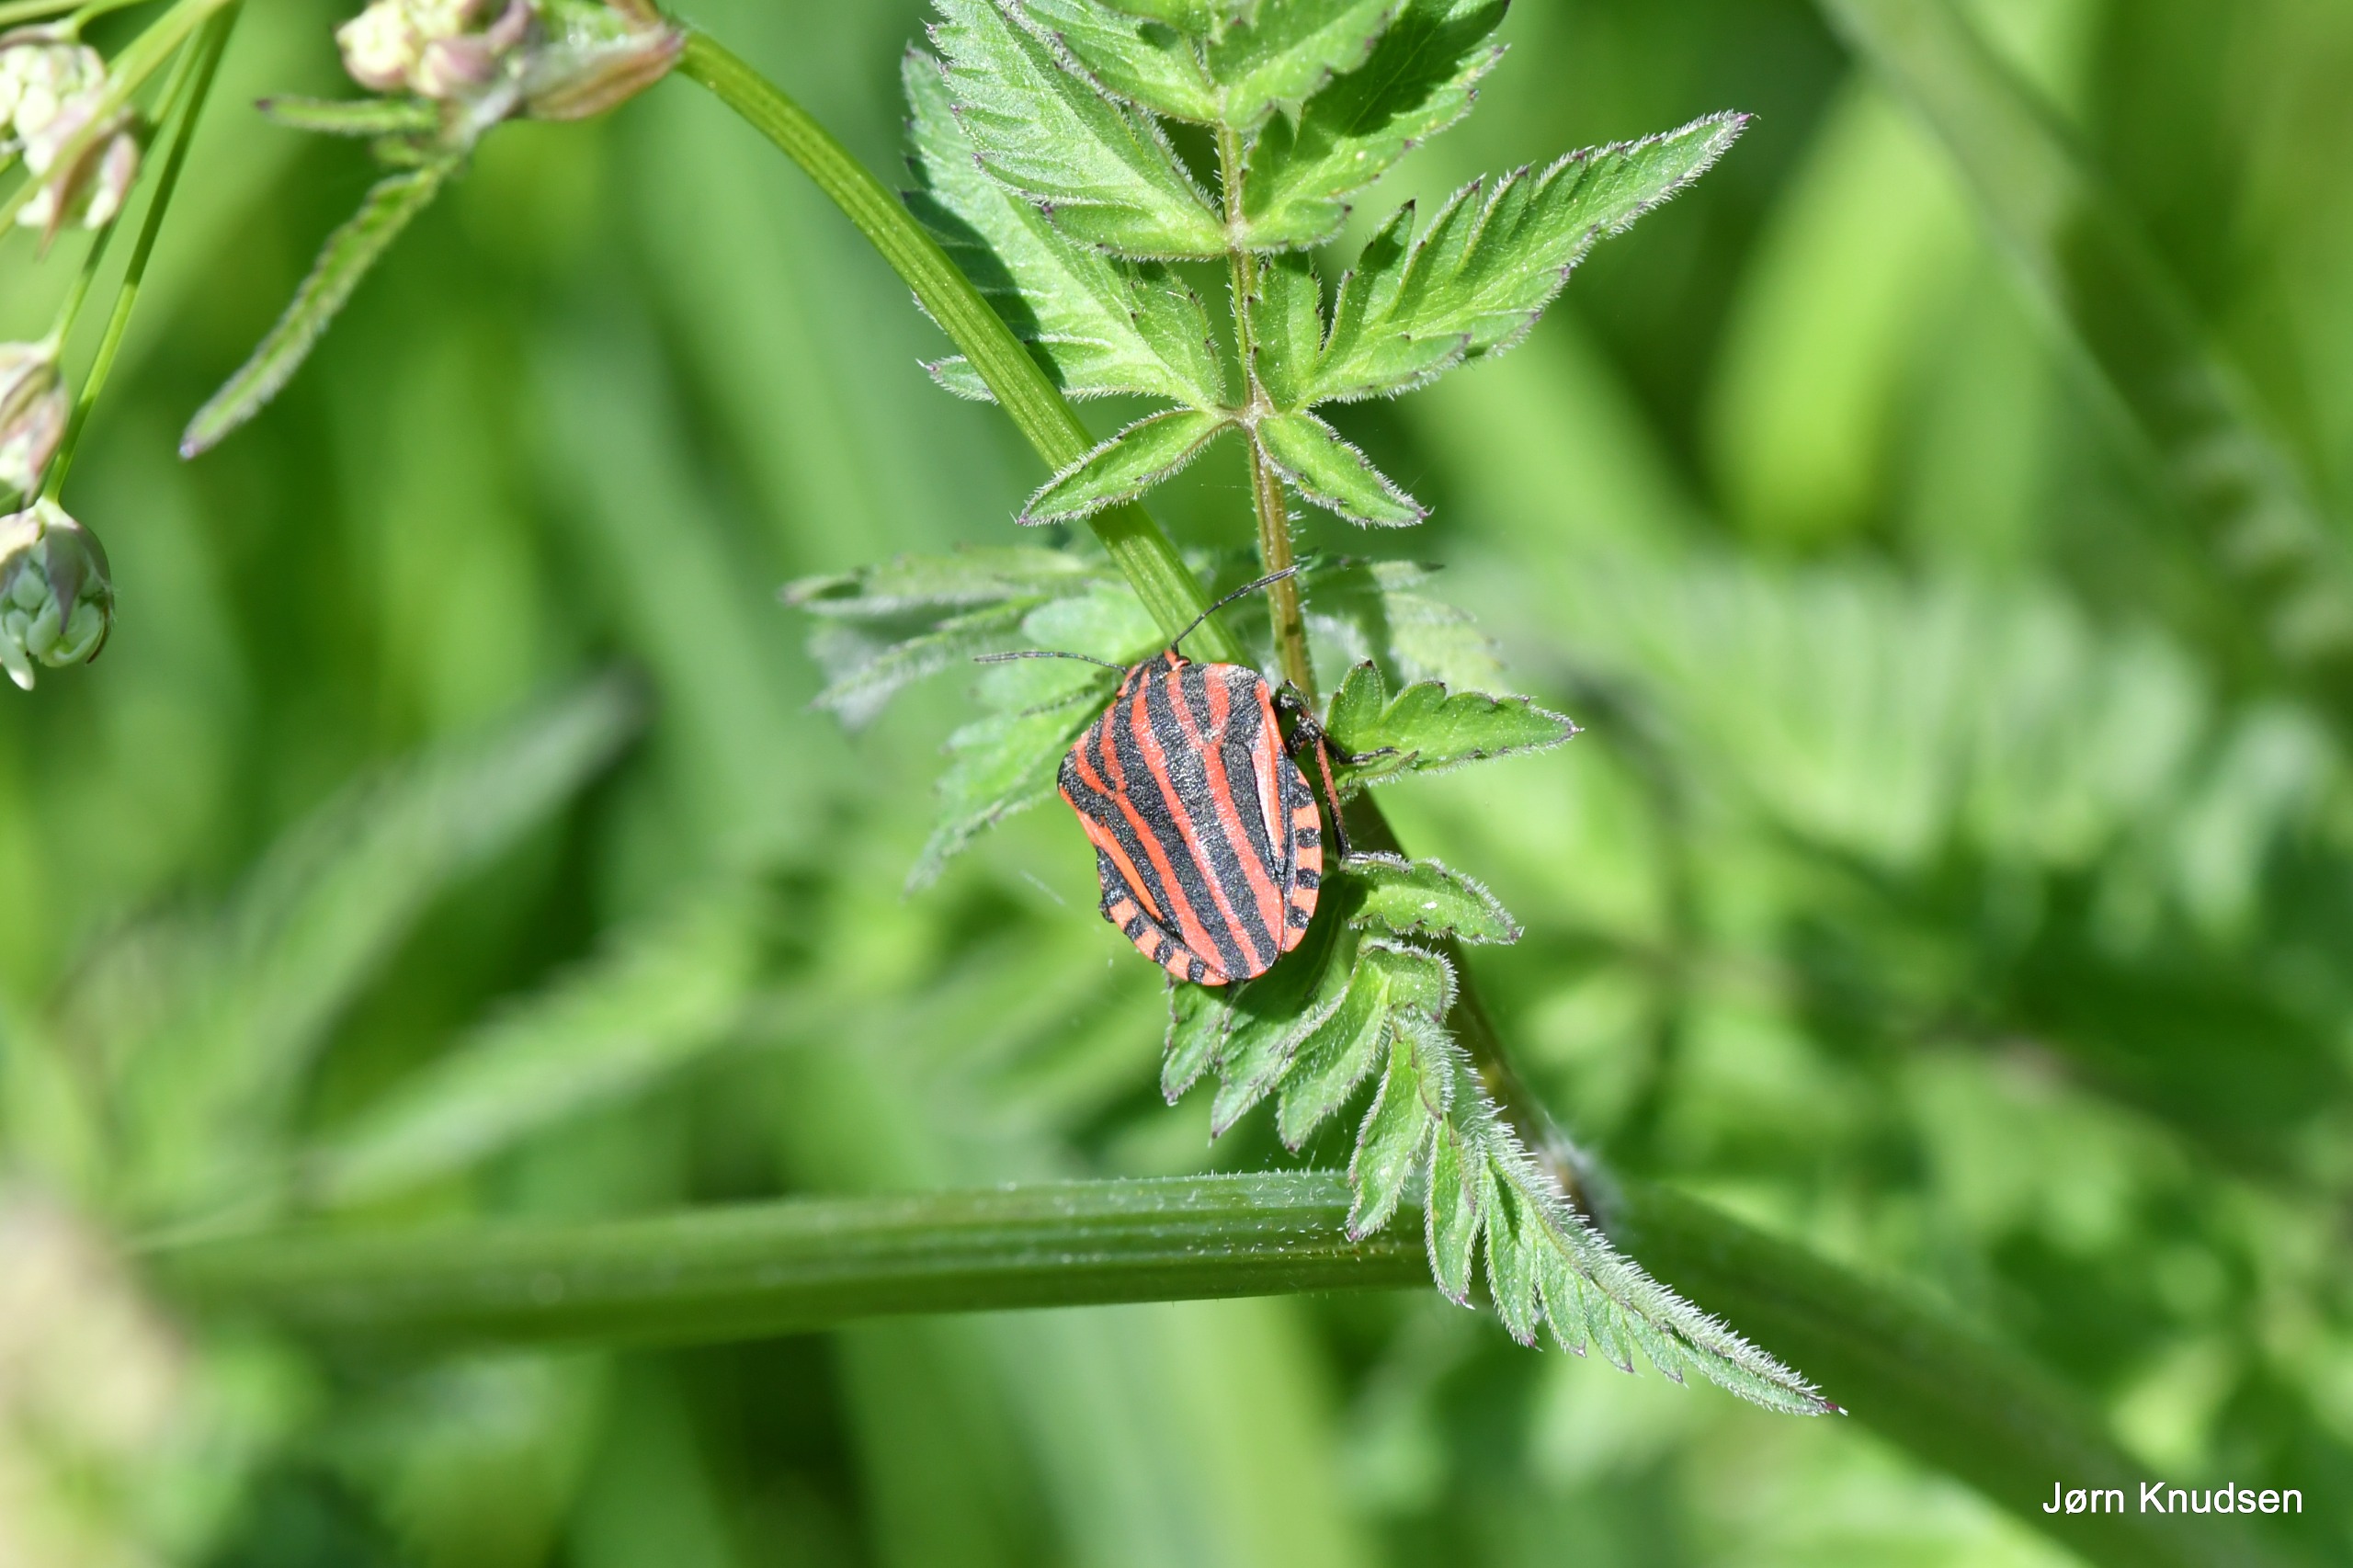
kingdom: Animalia
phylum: Arthropoda
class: Insecta
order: Hemiptera
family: Pentatomidae
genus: Graphosoma
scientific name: Graphosoma italicum
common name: Stribetæge
